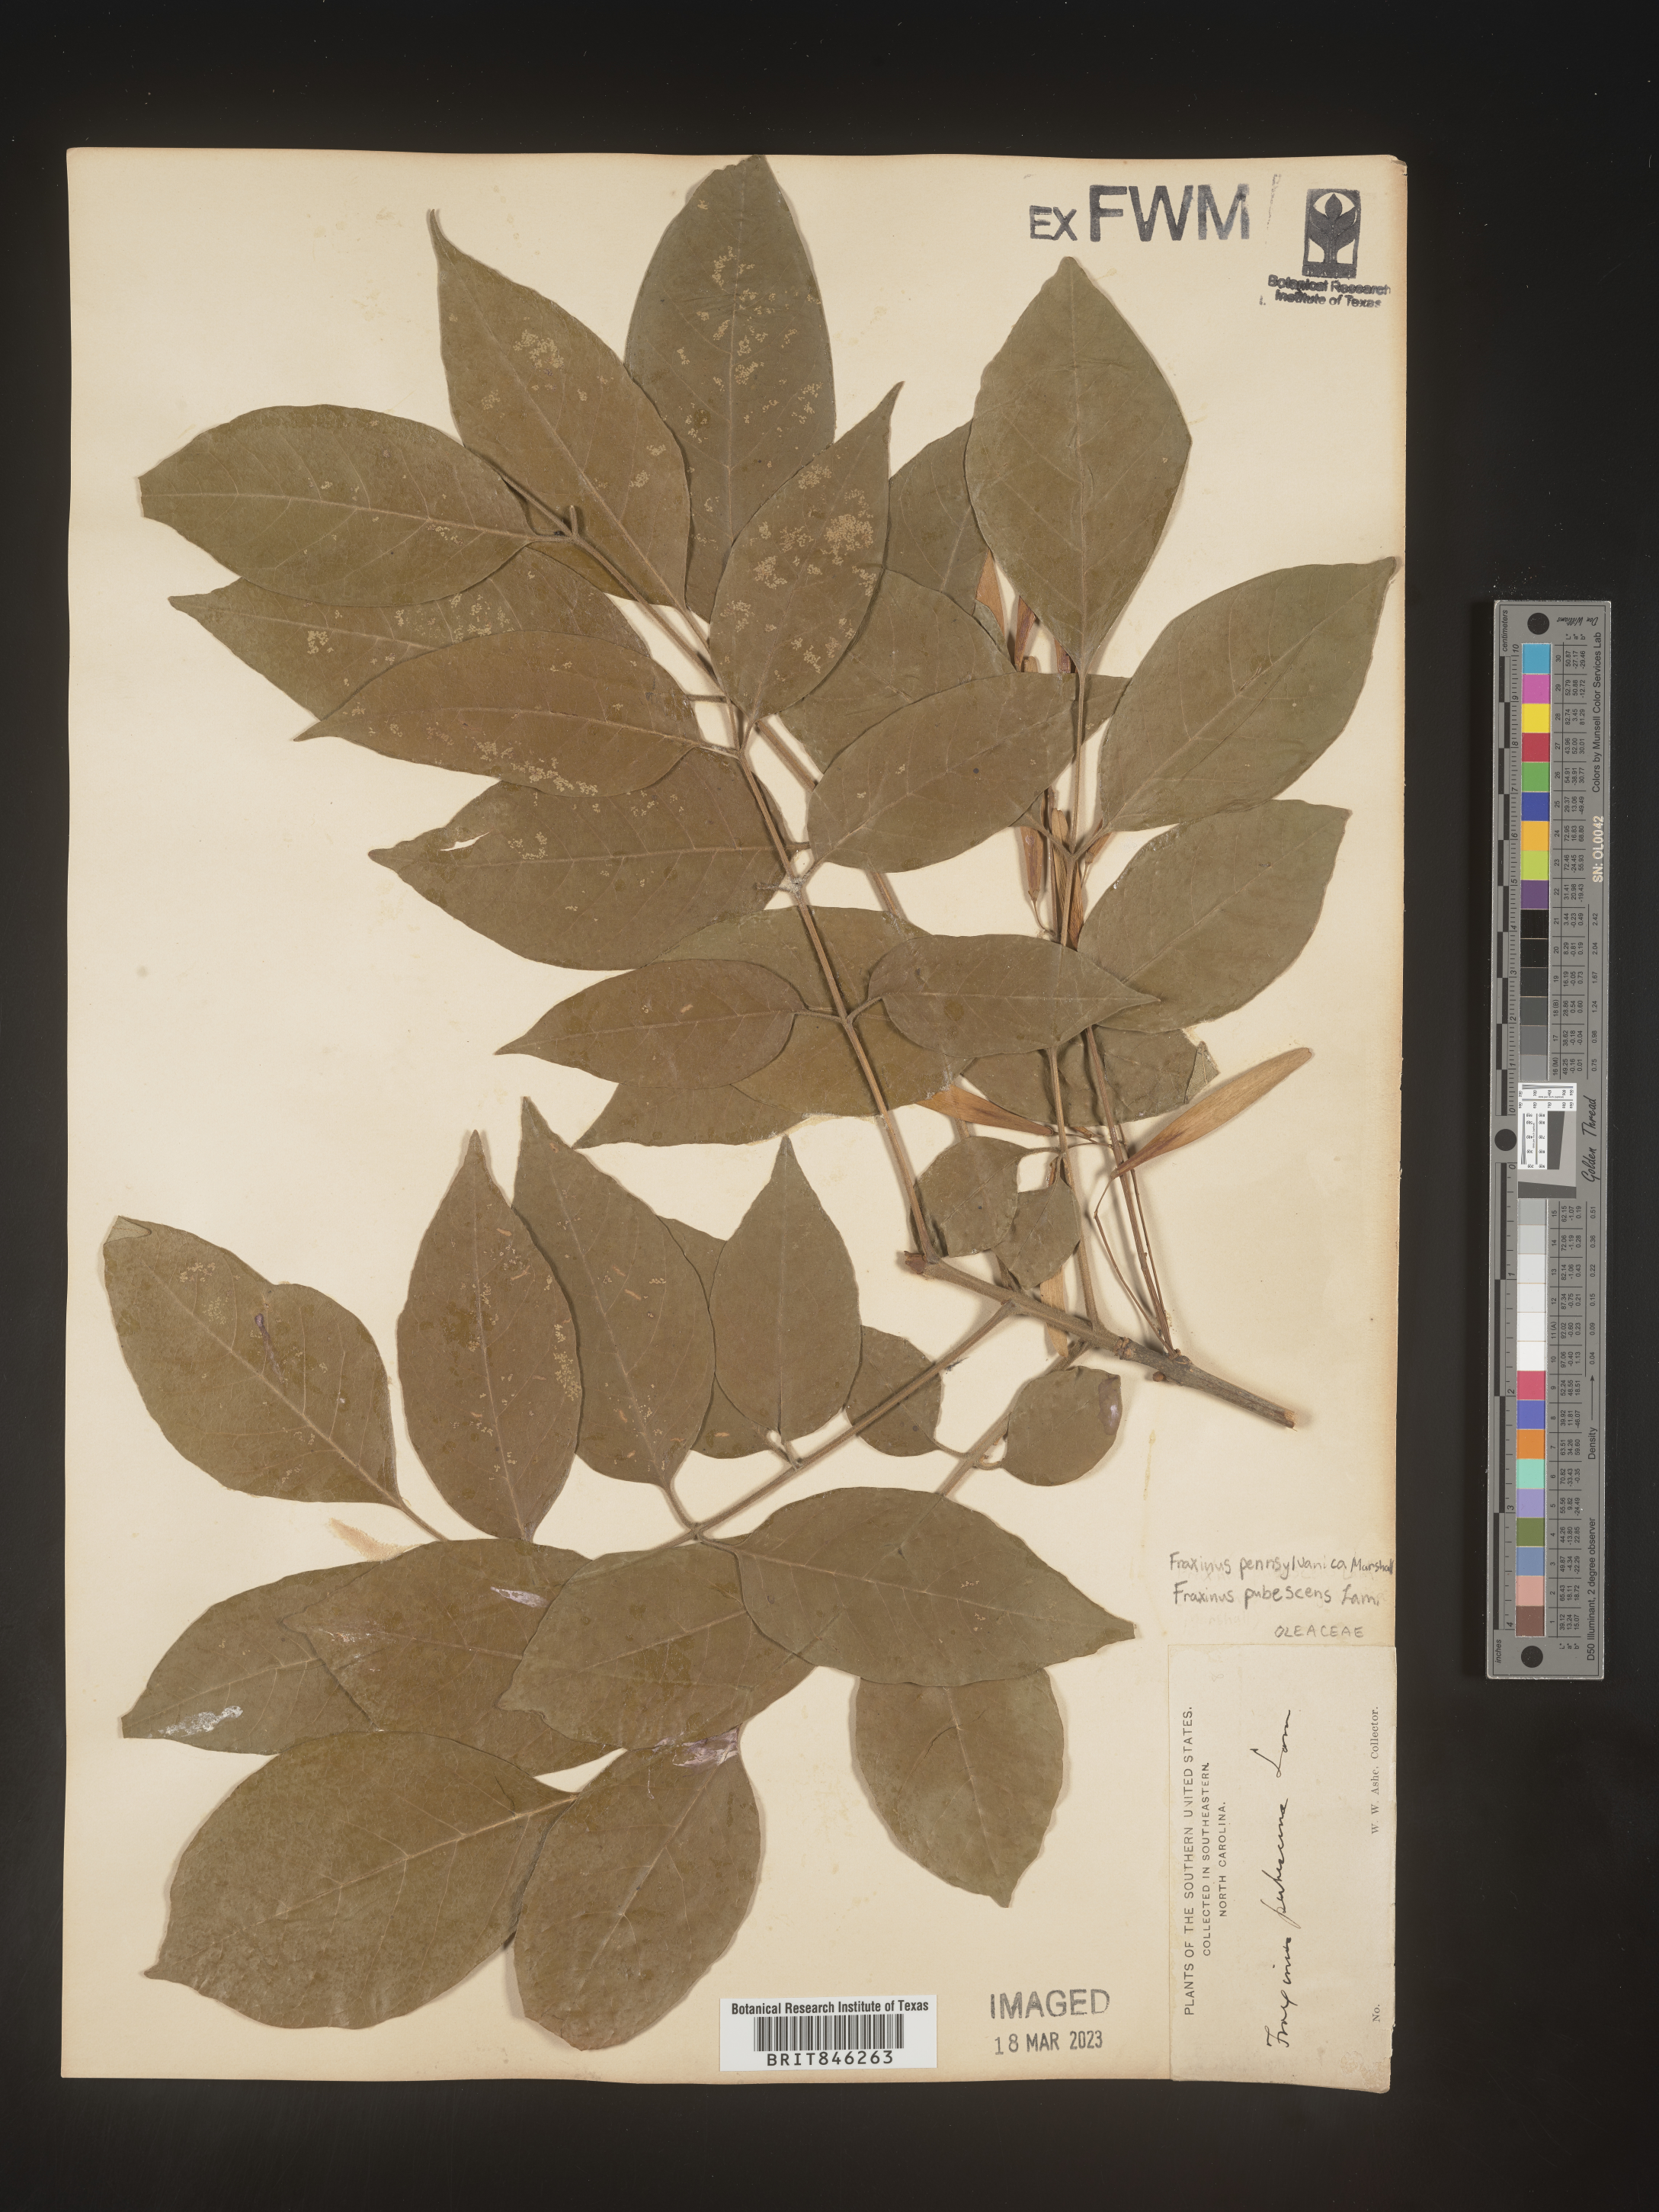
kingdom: Plantae
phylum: Tracheophyta
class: Magnoliopsida
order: Lamiales
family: Oleaceae
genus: Fraxinus
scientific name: Fraxinus pennsylvanica
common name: Green ash
